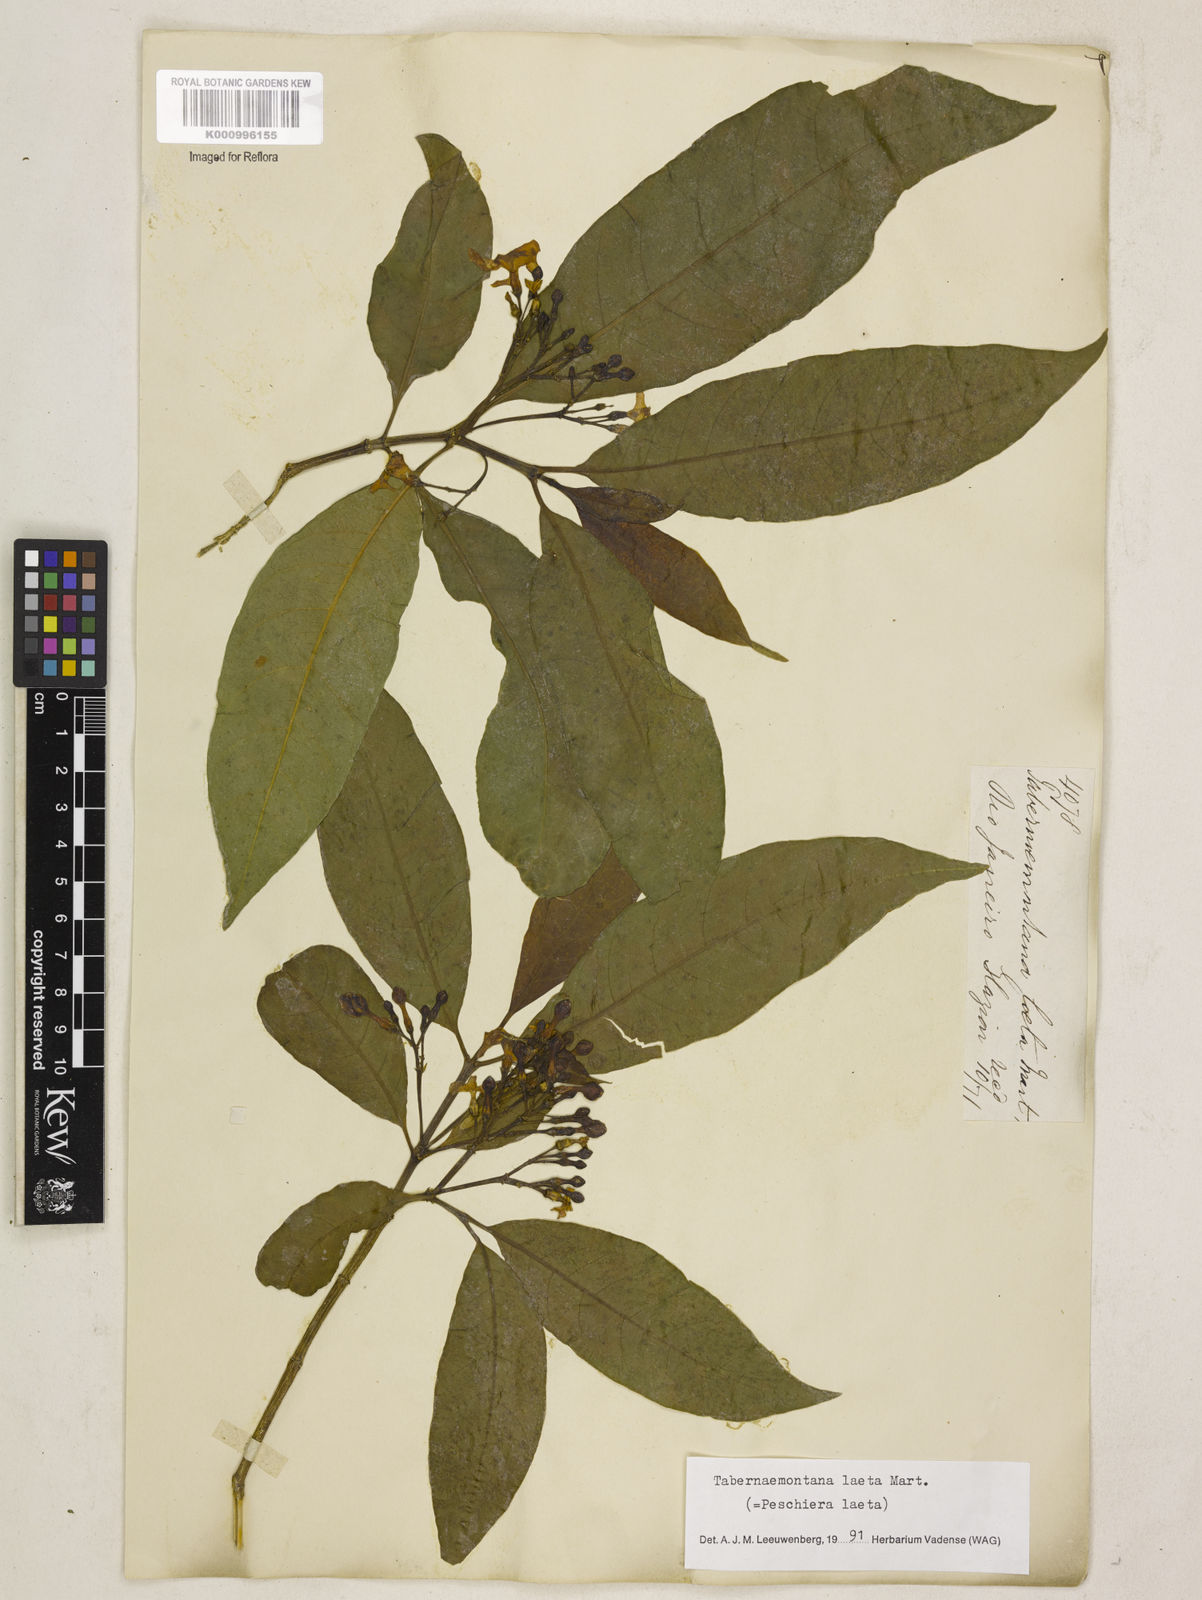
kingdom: Plantae
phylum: Tracheophyta
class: Magnoliopsida
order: Gentianales
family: Apocynaceae
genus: Tabernaemontana
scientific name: Tabernaemontana laeta
